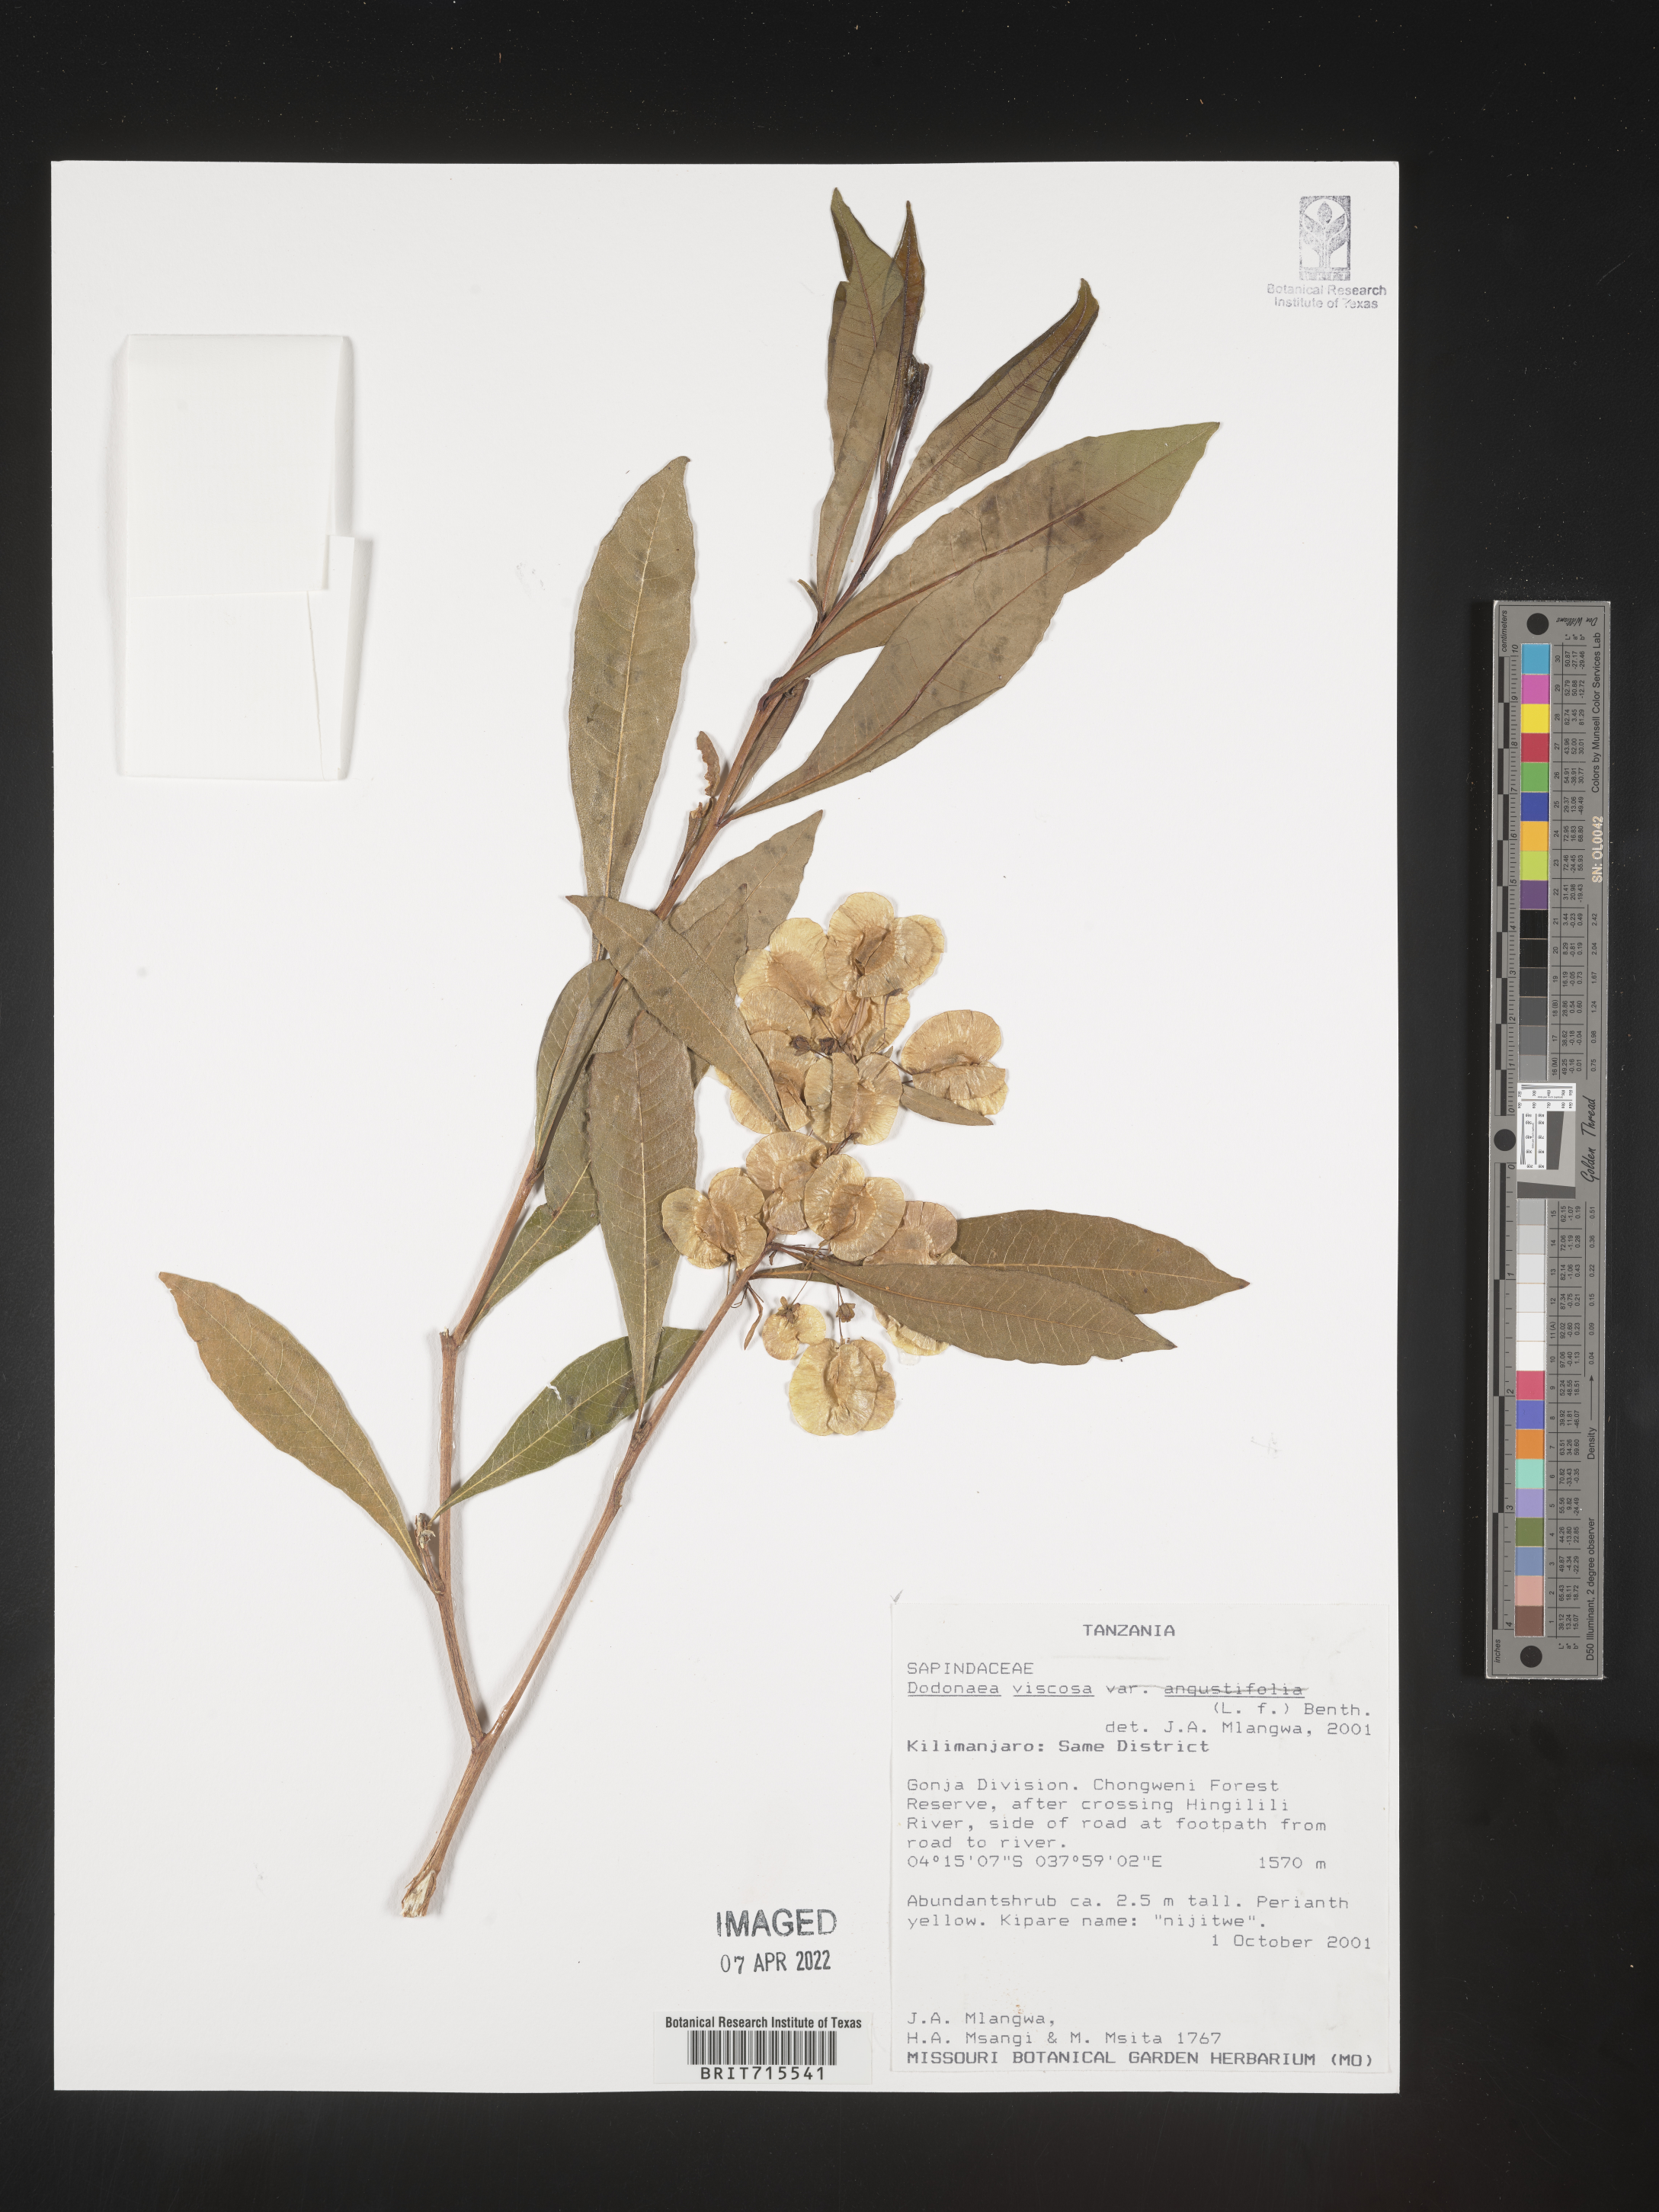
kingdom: Plantae
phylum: Tracheophyta
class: Magnoliopsida
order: Sapindales
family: Sapindaceae
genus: Dodonaea
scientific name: Dodonaea viscosa
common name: Hopbush
